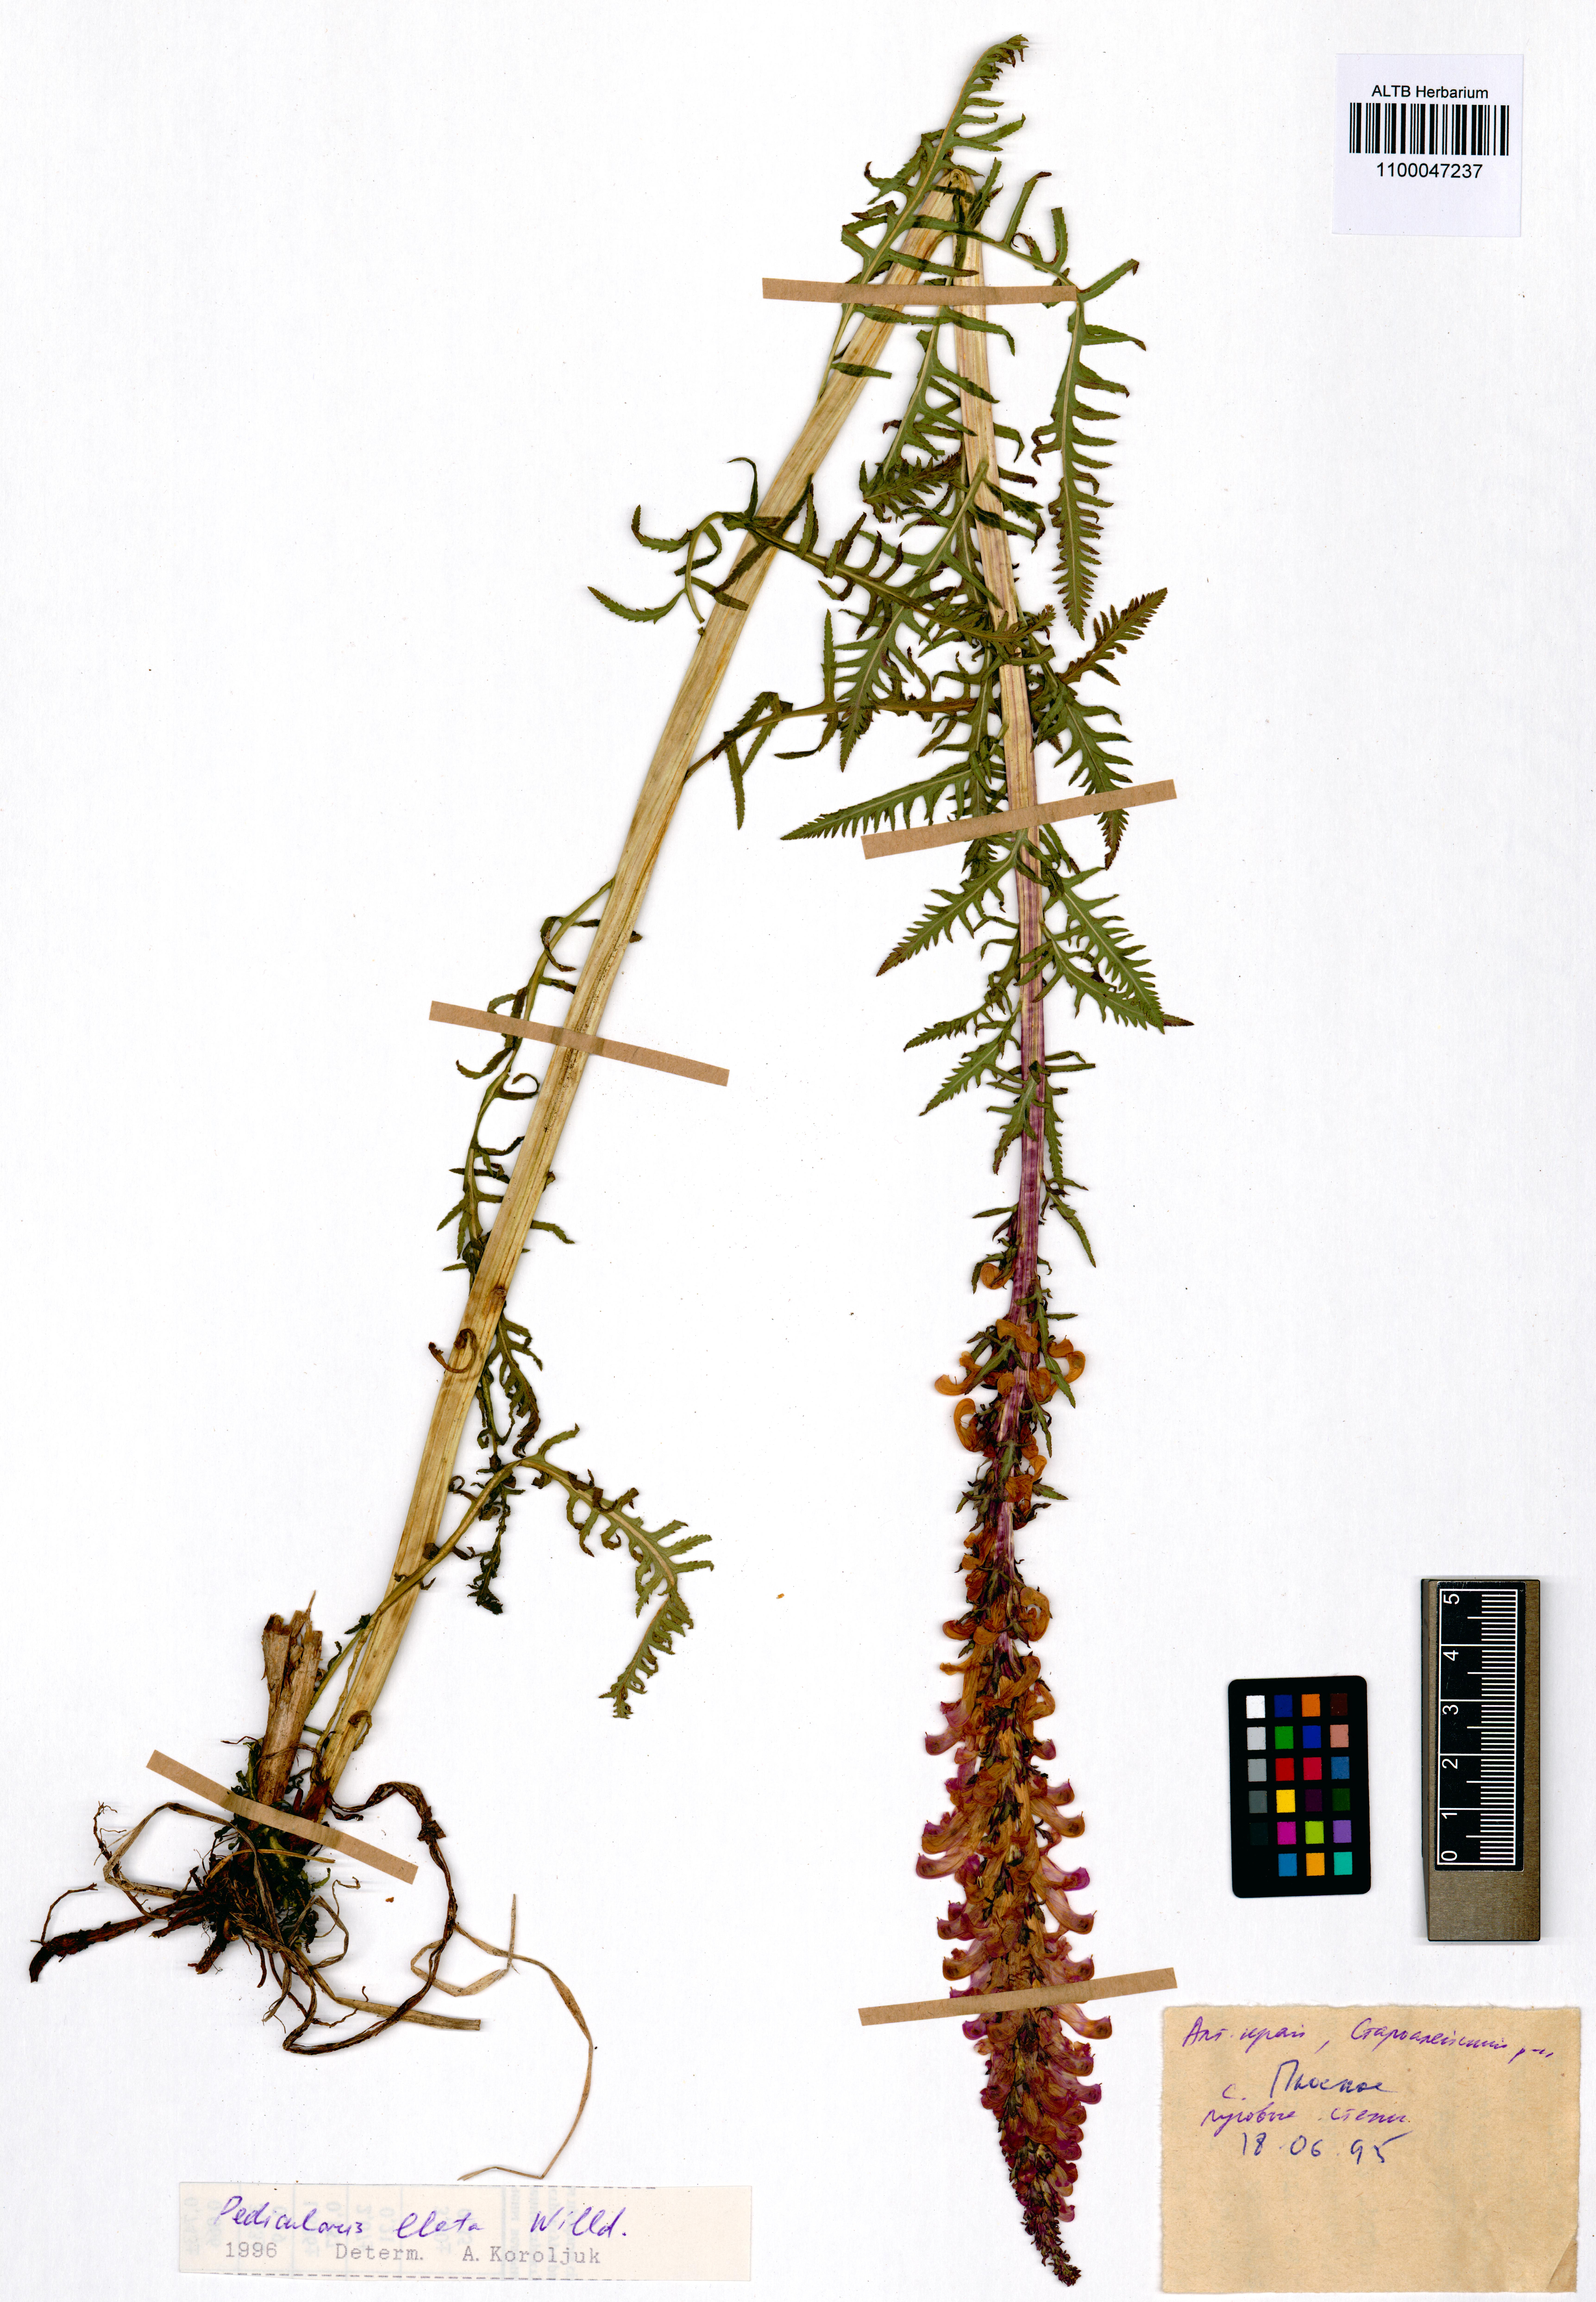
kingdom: Plantae
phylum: Tracheophyta
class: Magnoliopsida
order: Lamiales
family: Orobanchaceae
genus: Pedicularis
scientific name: Pedicularis elata
